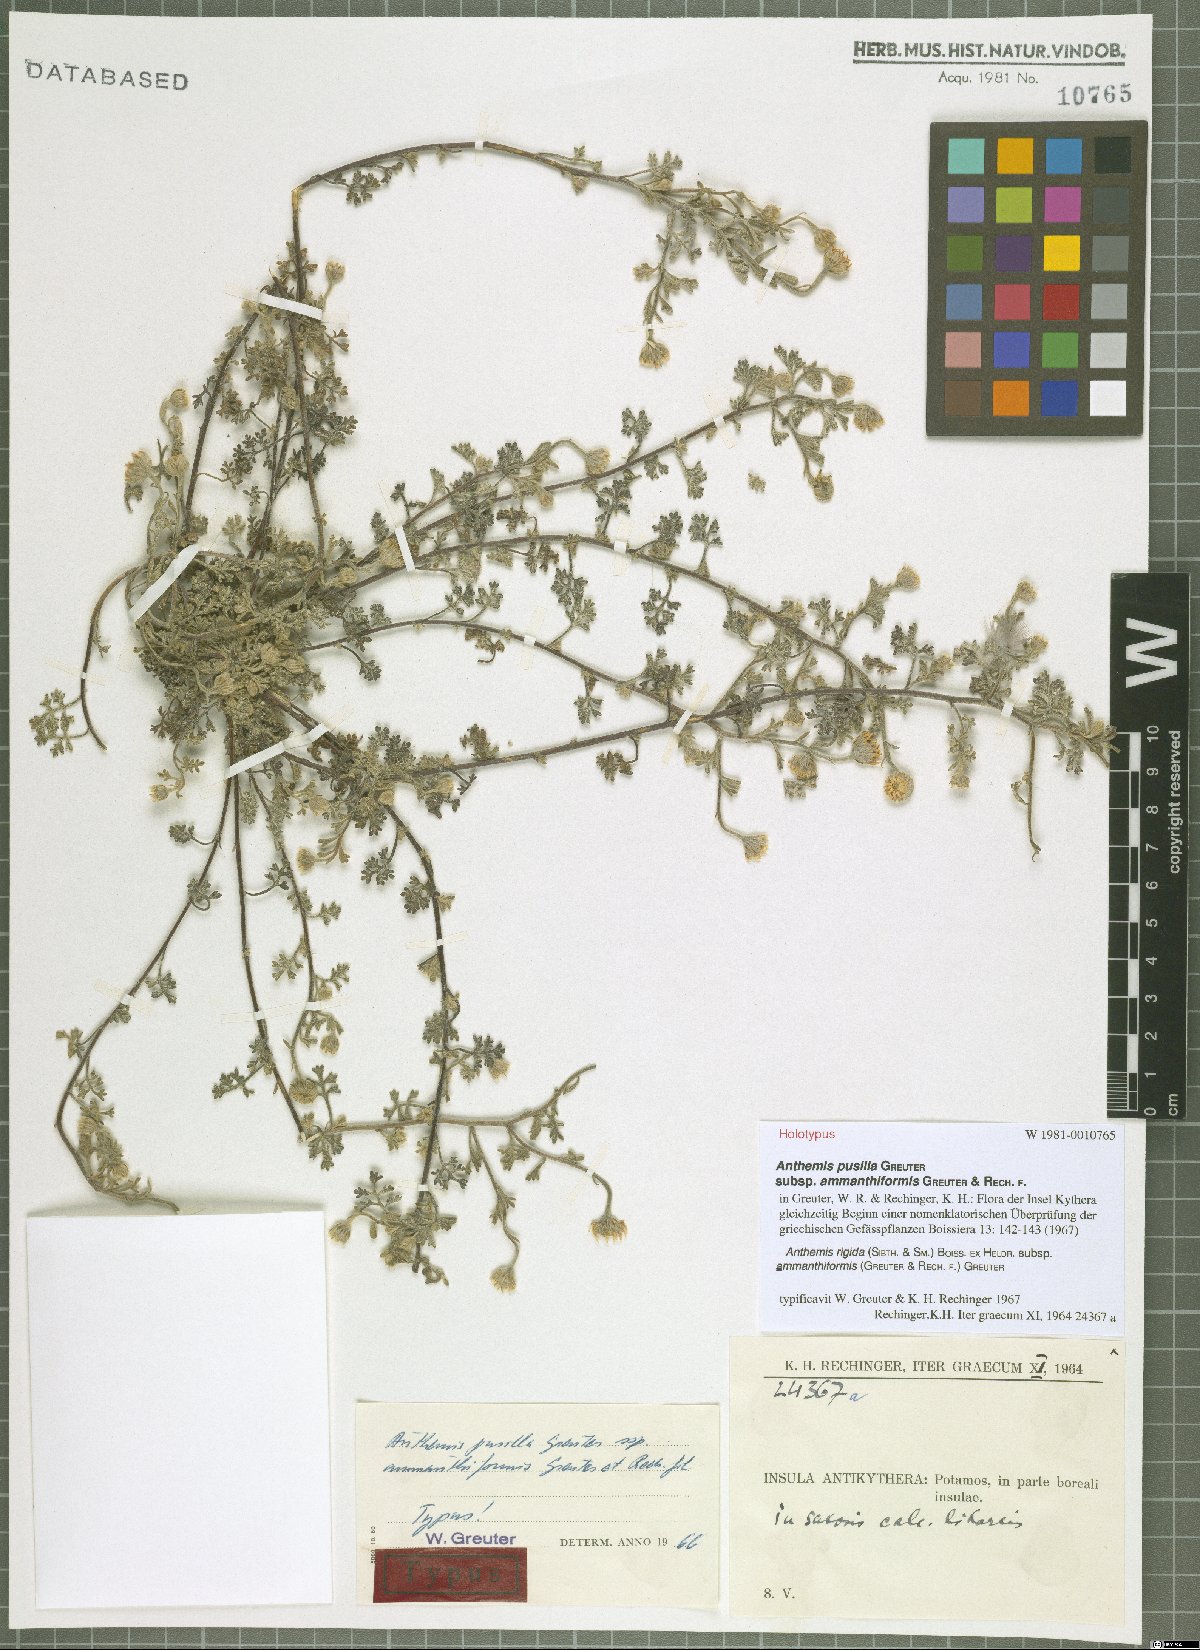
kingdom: Plantae
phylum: Tracheophyta
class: Magnoliopsida
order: Asterales
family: Asteraceae
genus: Anthemis
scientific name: Anthemis rigida
